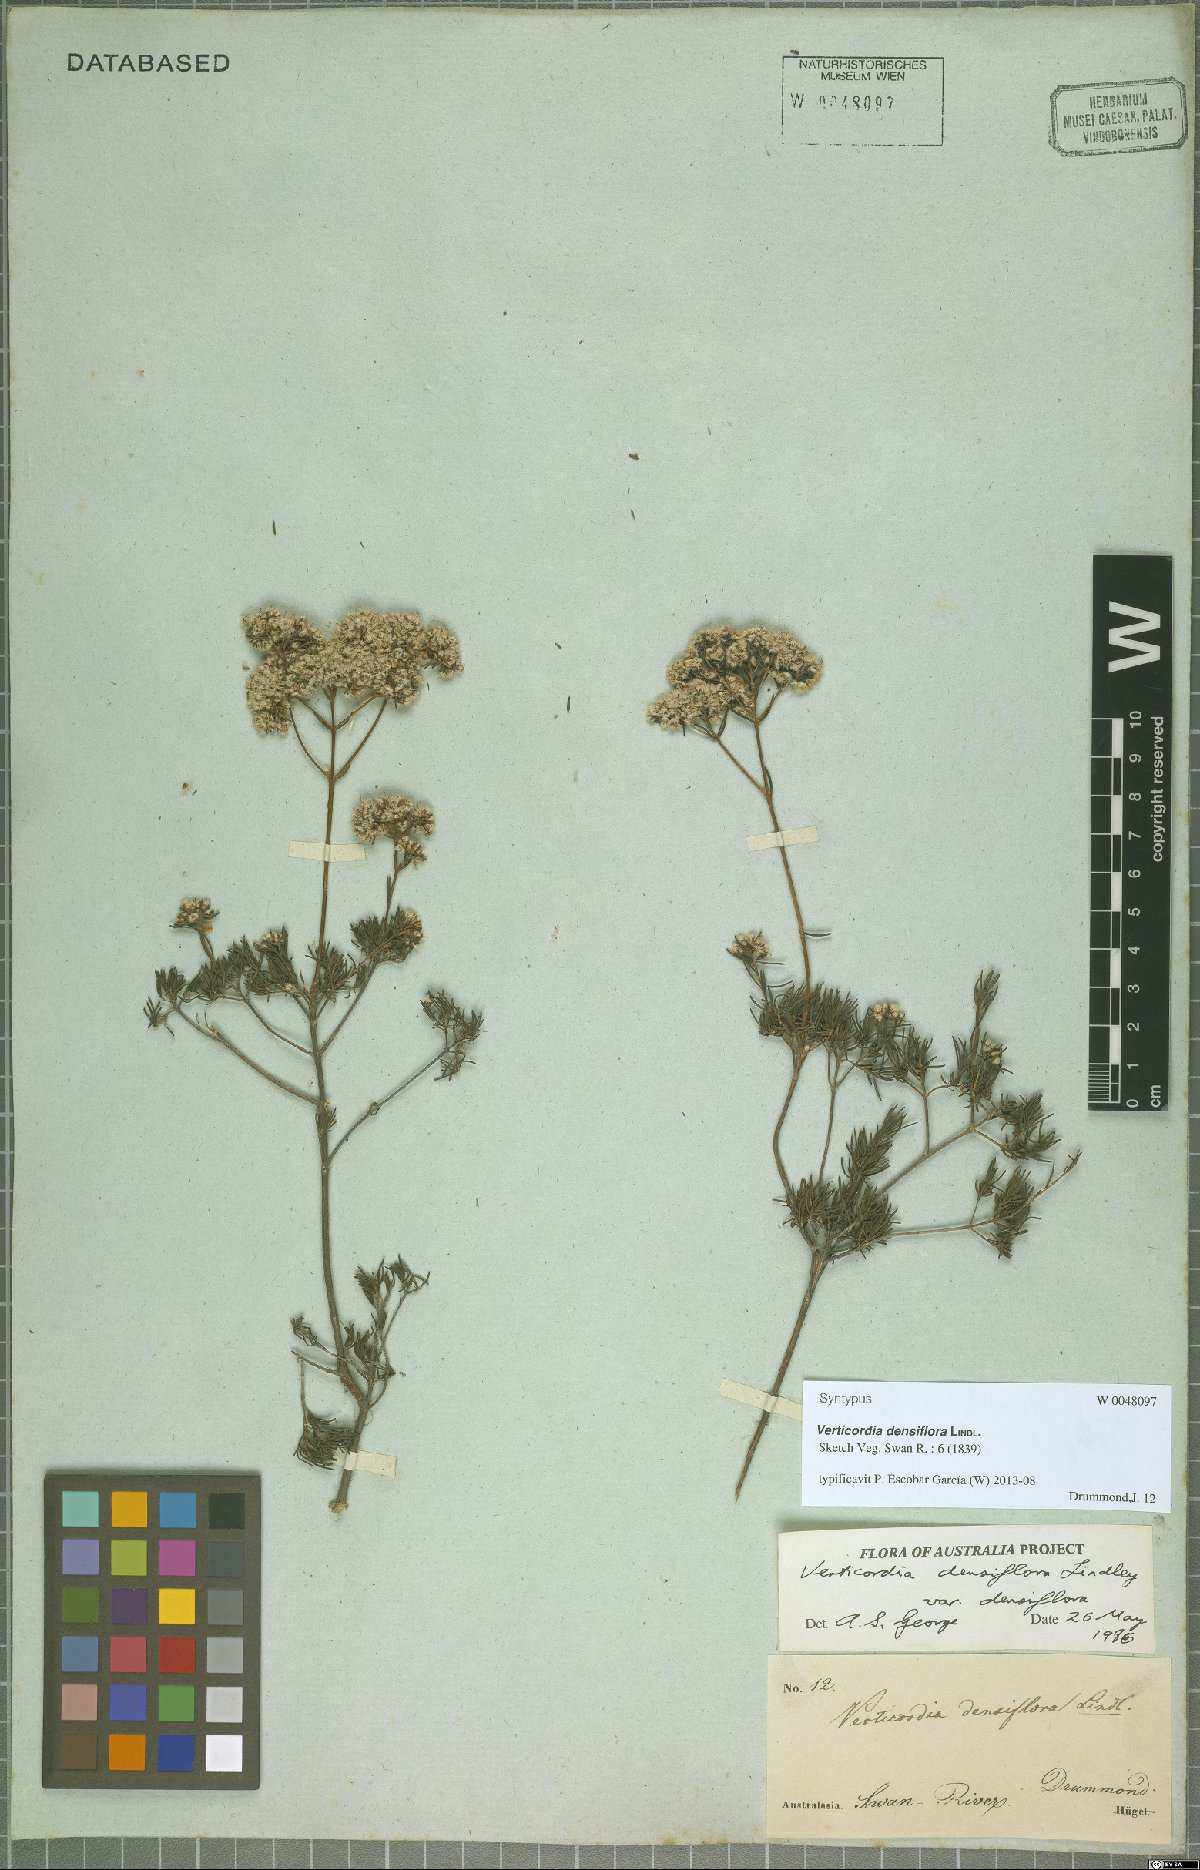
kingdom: Plantae
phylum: Tracheophyta
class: Magnoliopsida
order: Myrtales
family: Myrtaceae
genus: Verticordia
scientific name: Verticordia densiflora
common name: Compact feather-flower
